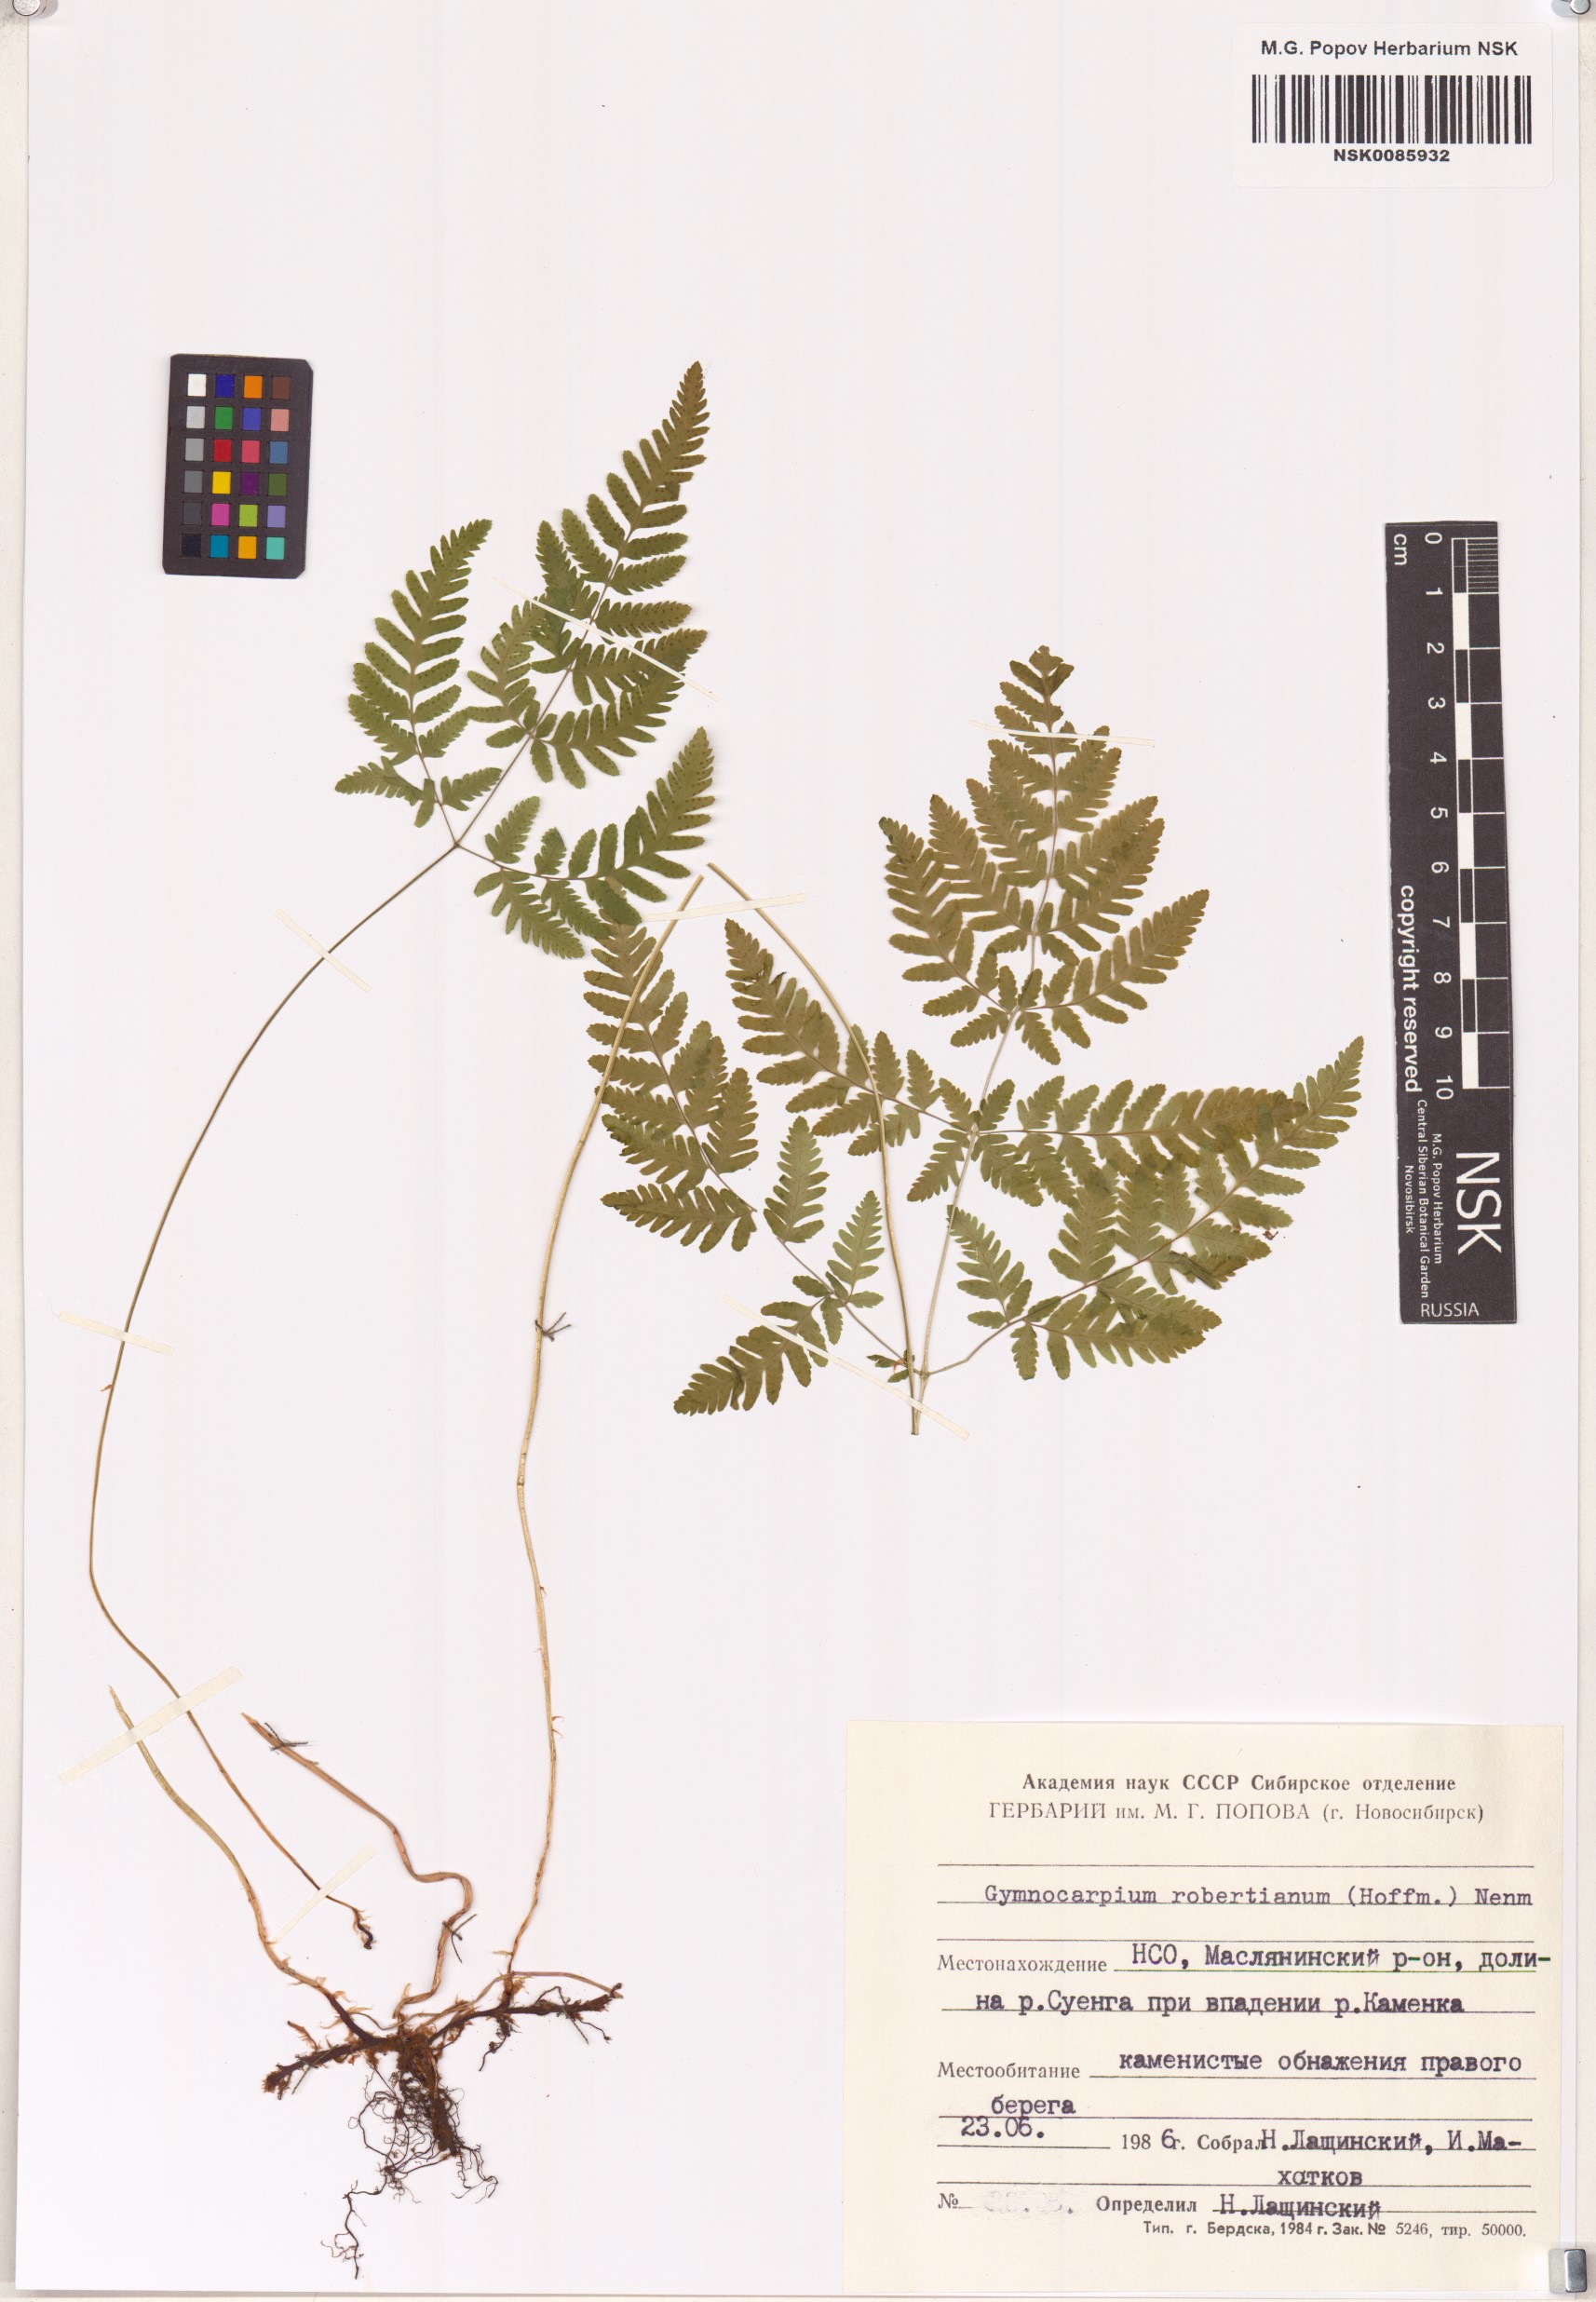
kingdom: Plantae
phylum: Tracheophyta
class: Polypodiopsida
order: Polypodiales
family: Cystopteridaceae
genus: Gymnocarpium
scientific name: Gymnocarpium robertianum
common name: Limestone fern
